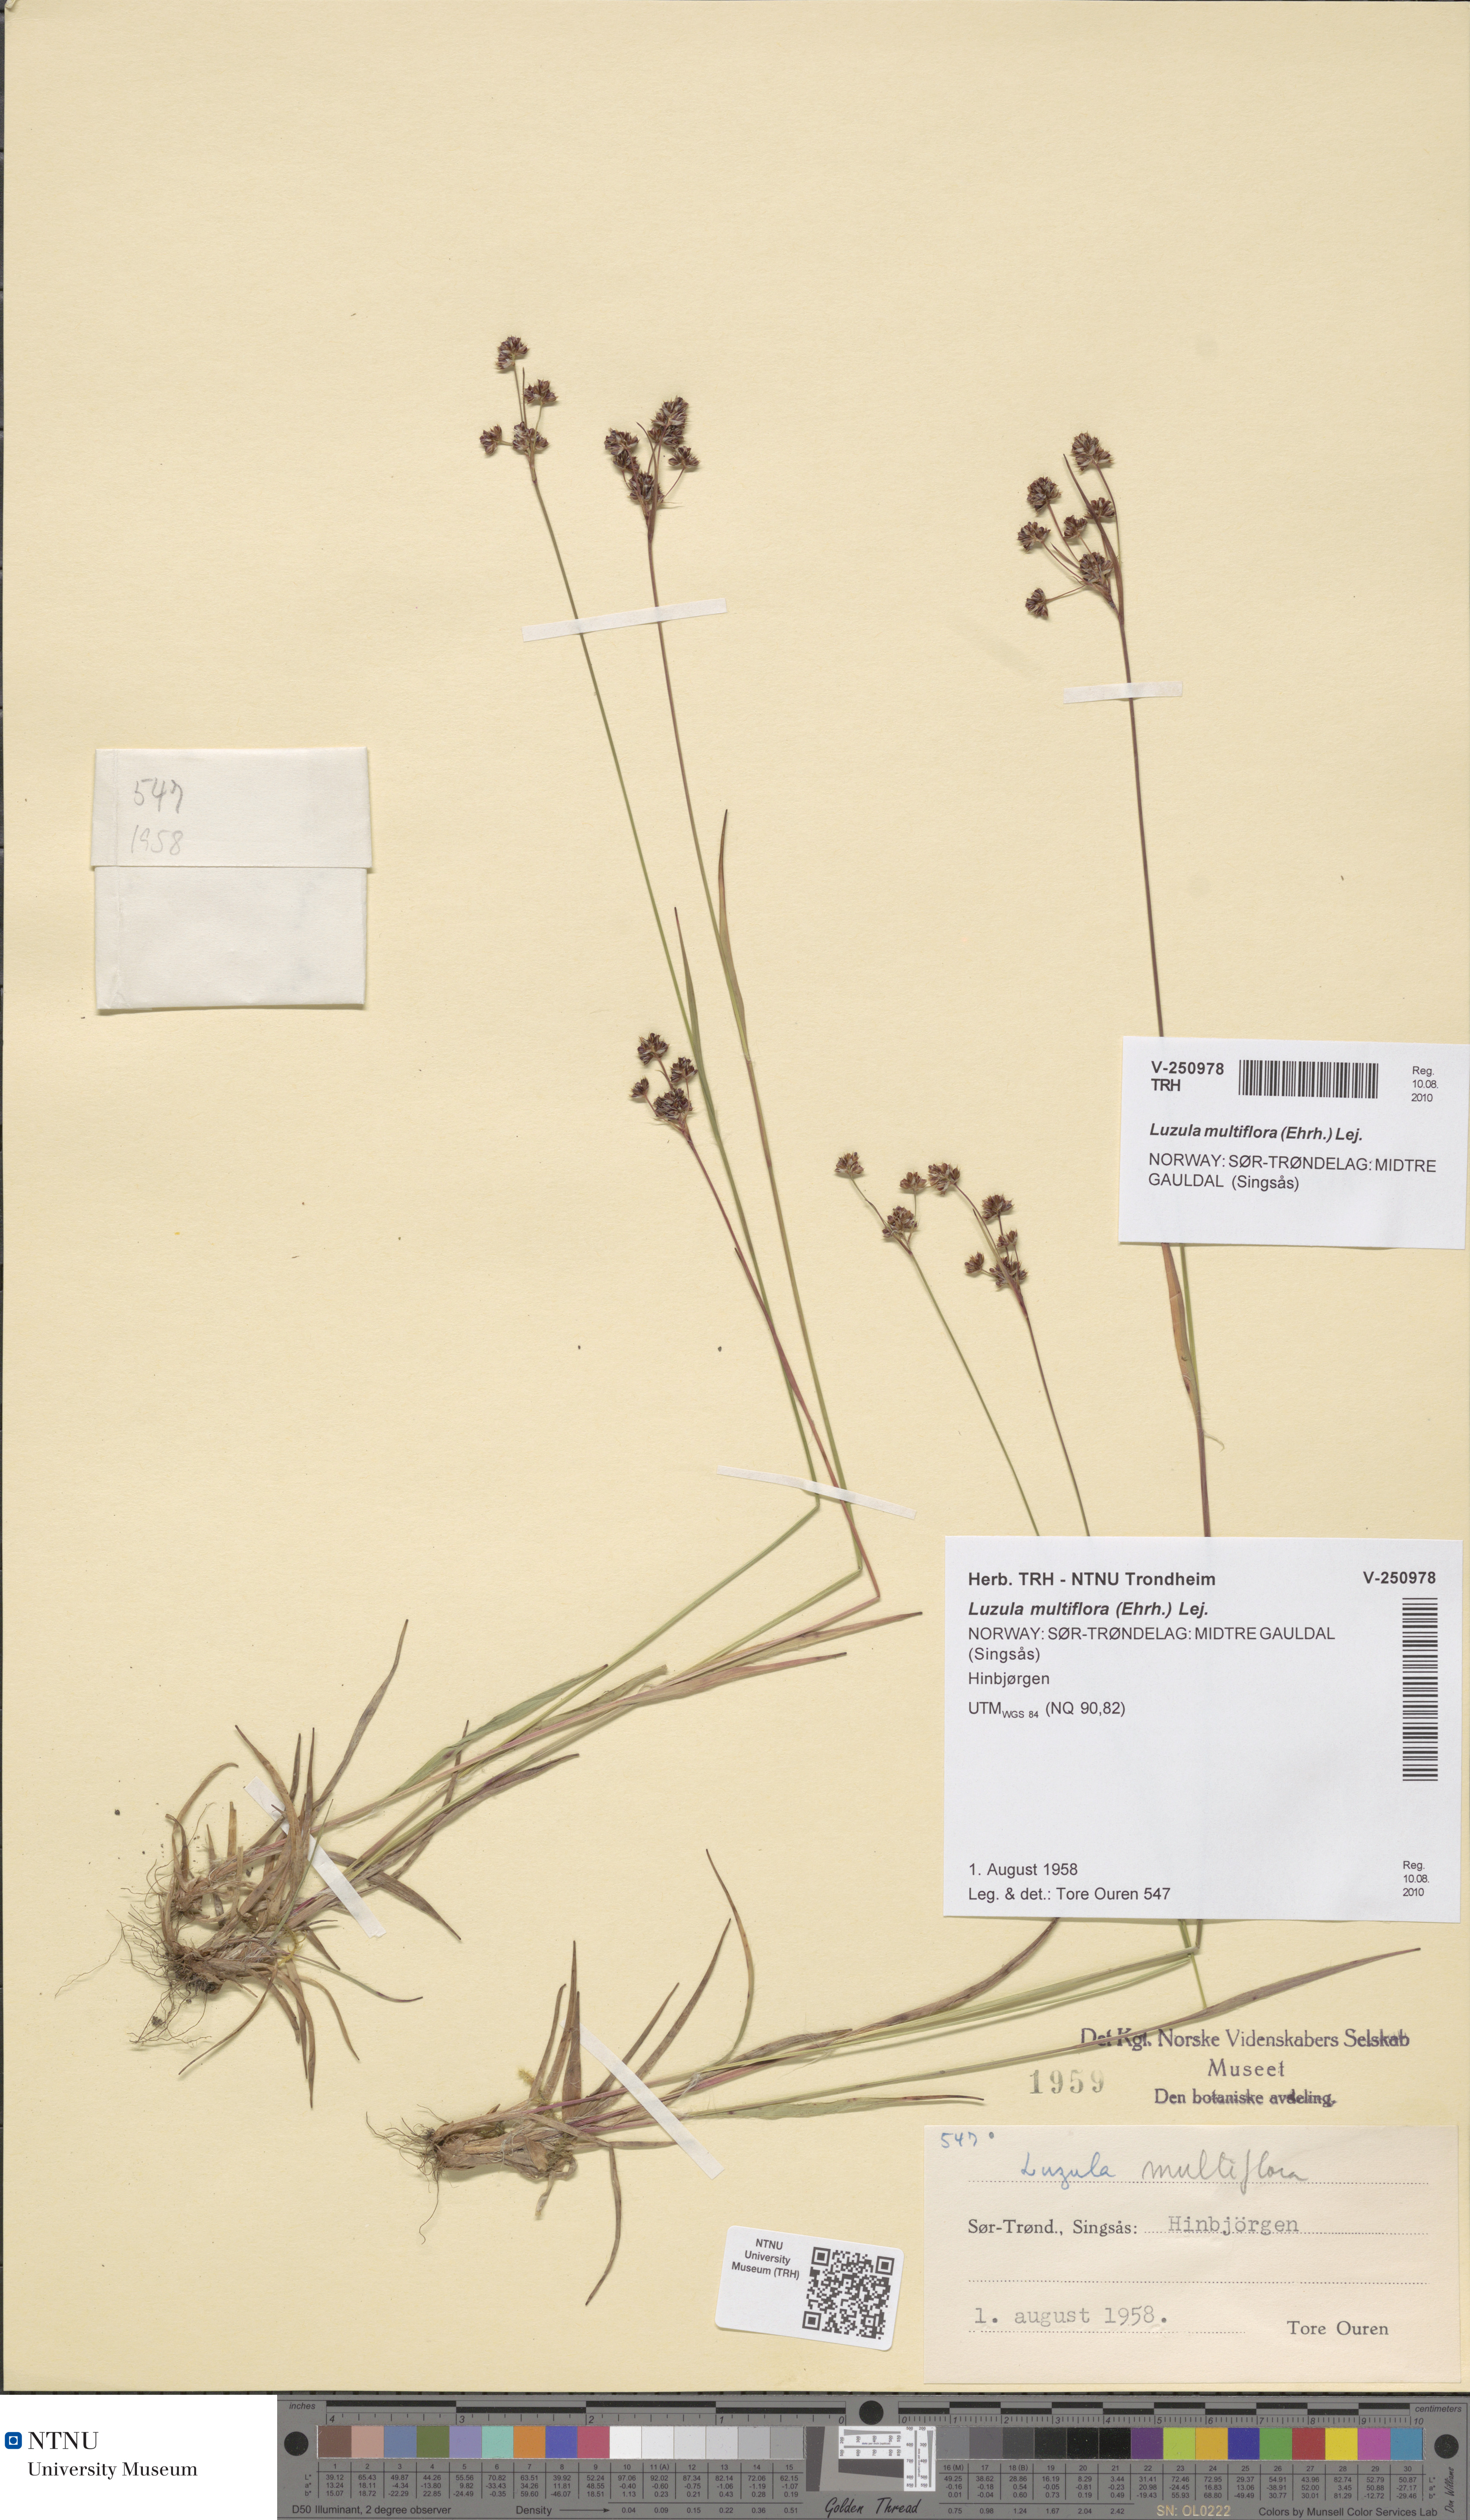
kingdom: Plantae
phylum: Tracheophyta
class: Liliopsida
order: Poales
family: Juncaceae
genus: Luzula
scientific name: Luzula multiflora
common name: Heath wood-rush
